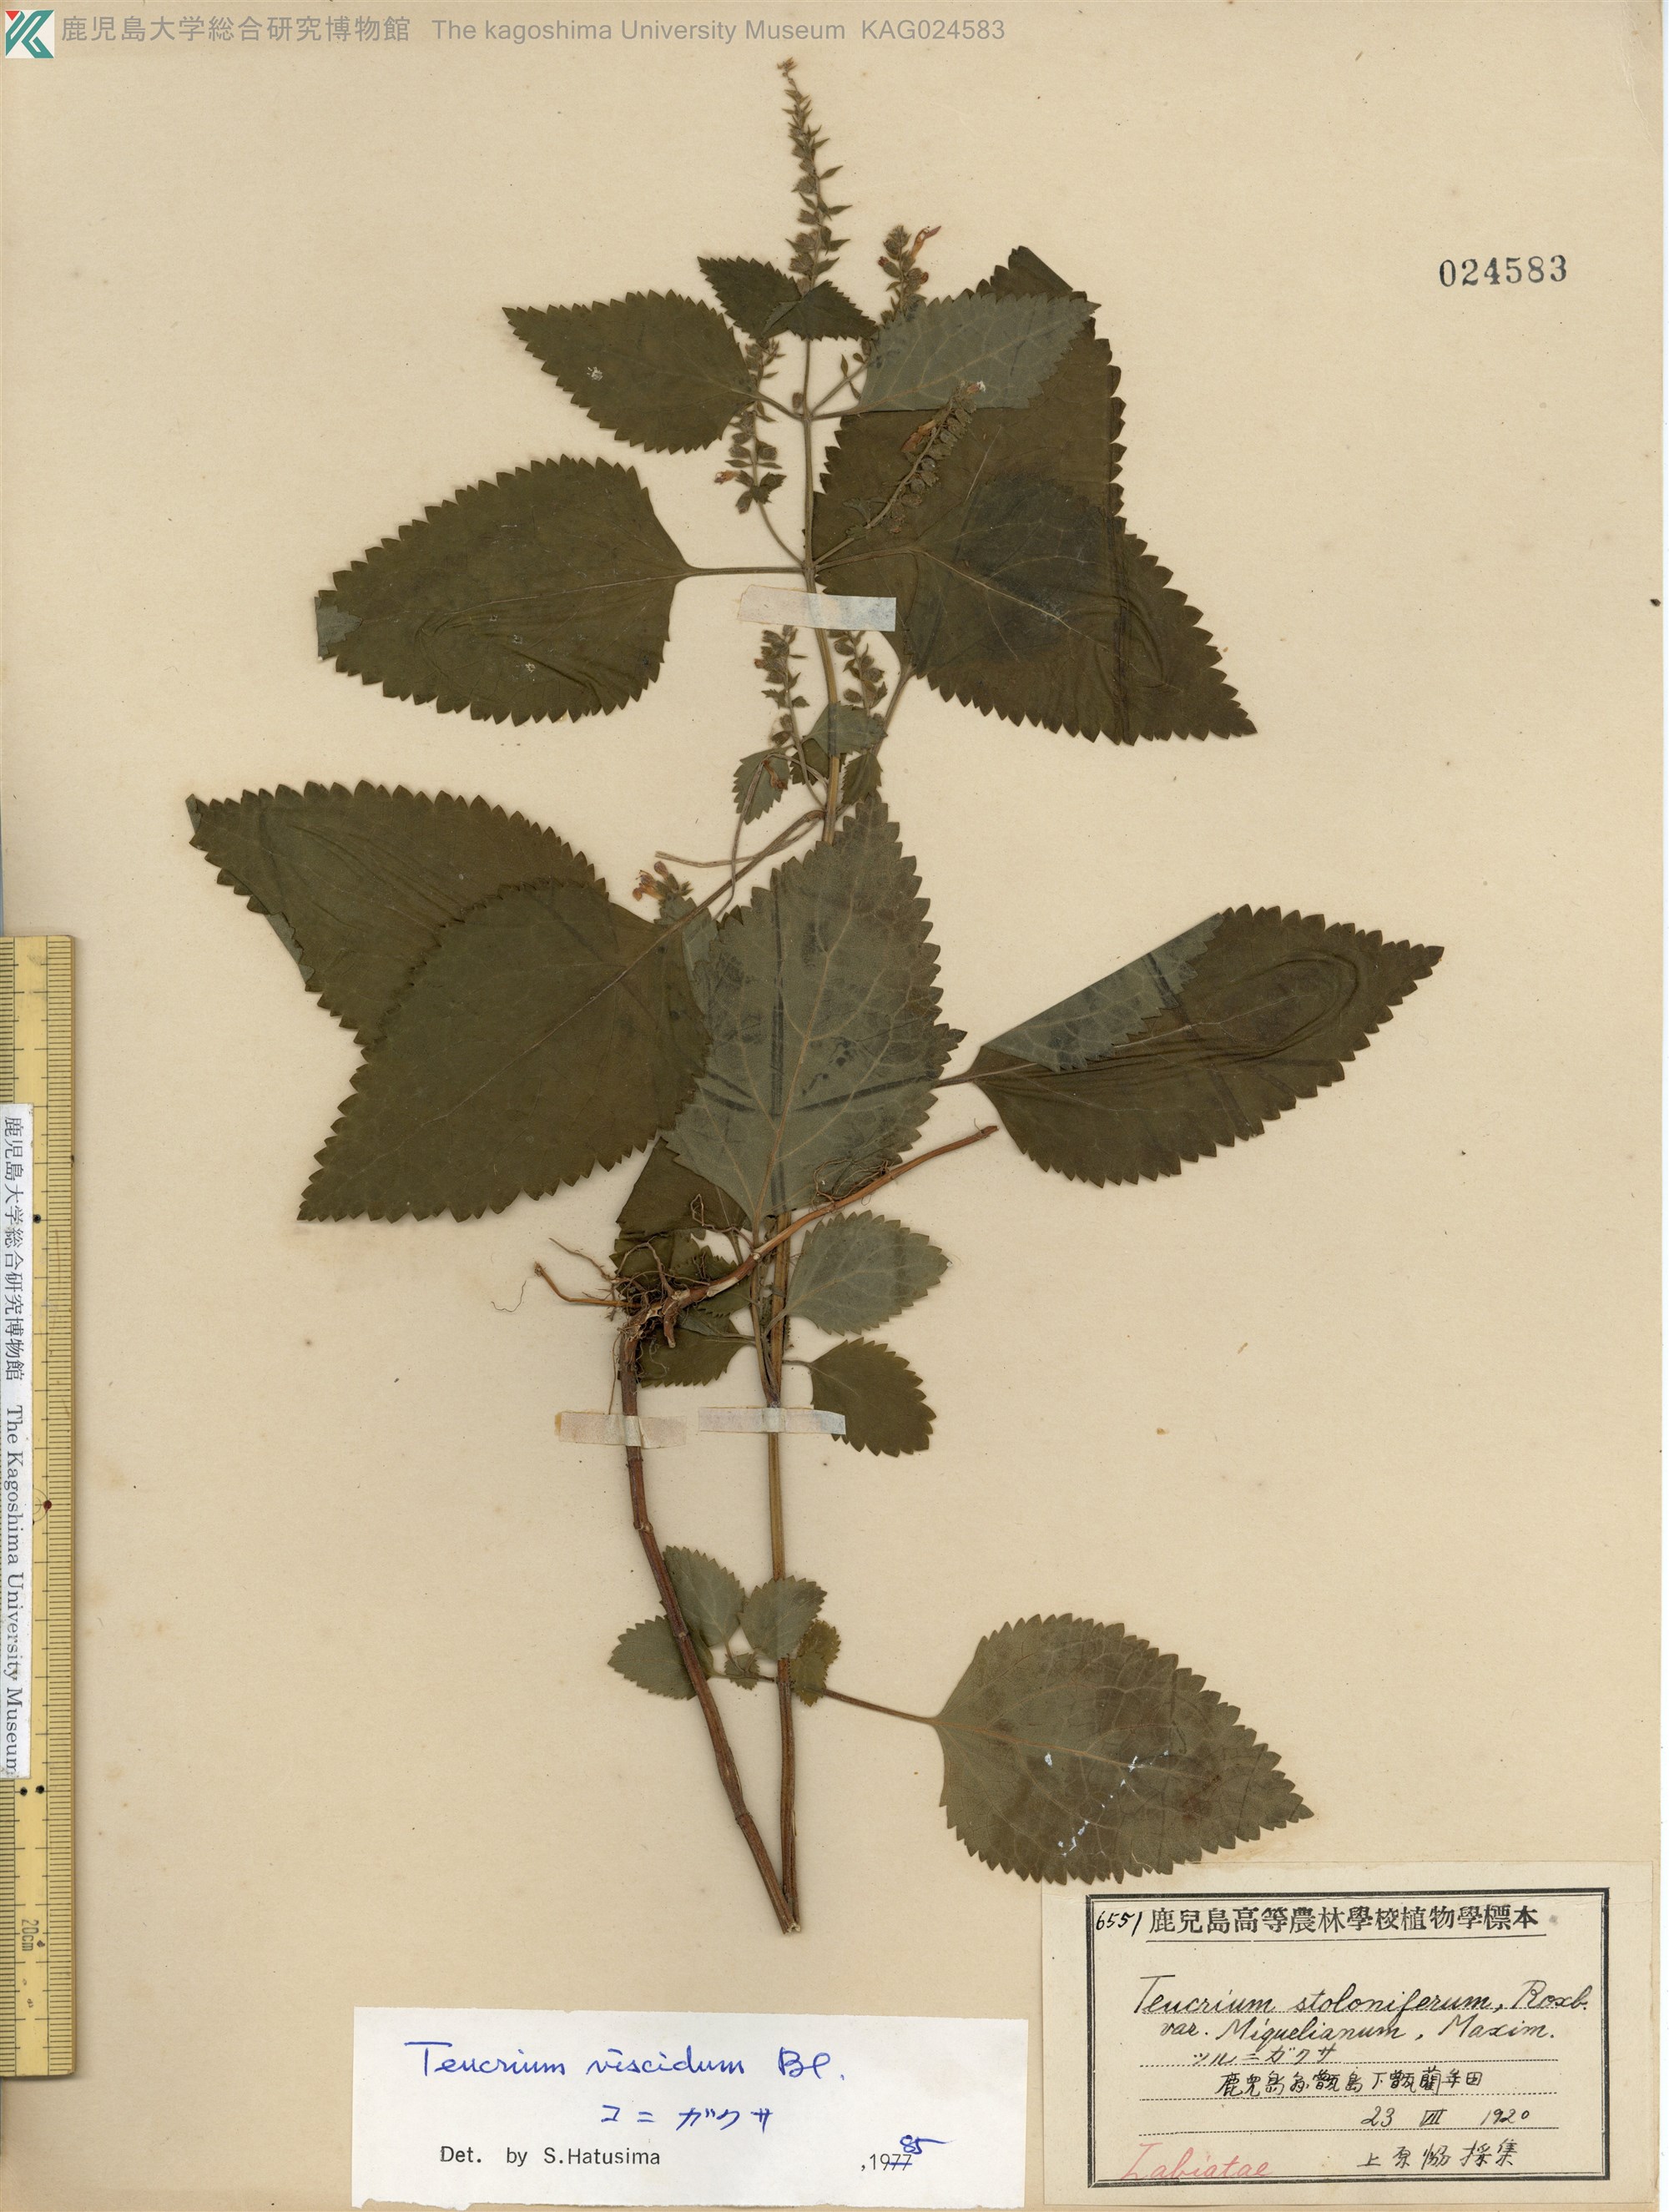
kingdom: Plantae
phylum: Tracheophyta
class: Magnoliopsida
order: Lamiales
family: Lamiaceae
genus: Teucrium
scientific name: Teucrium viscidum
